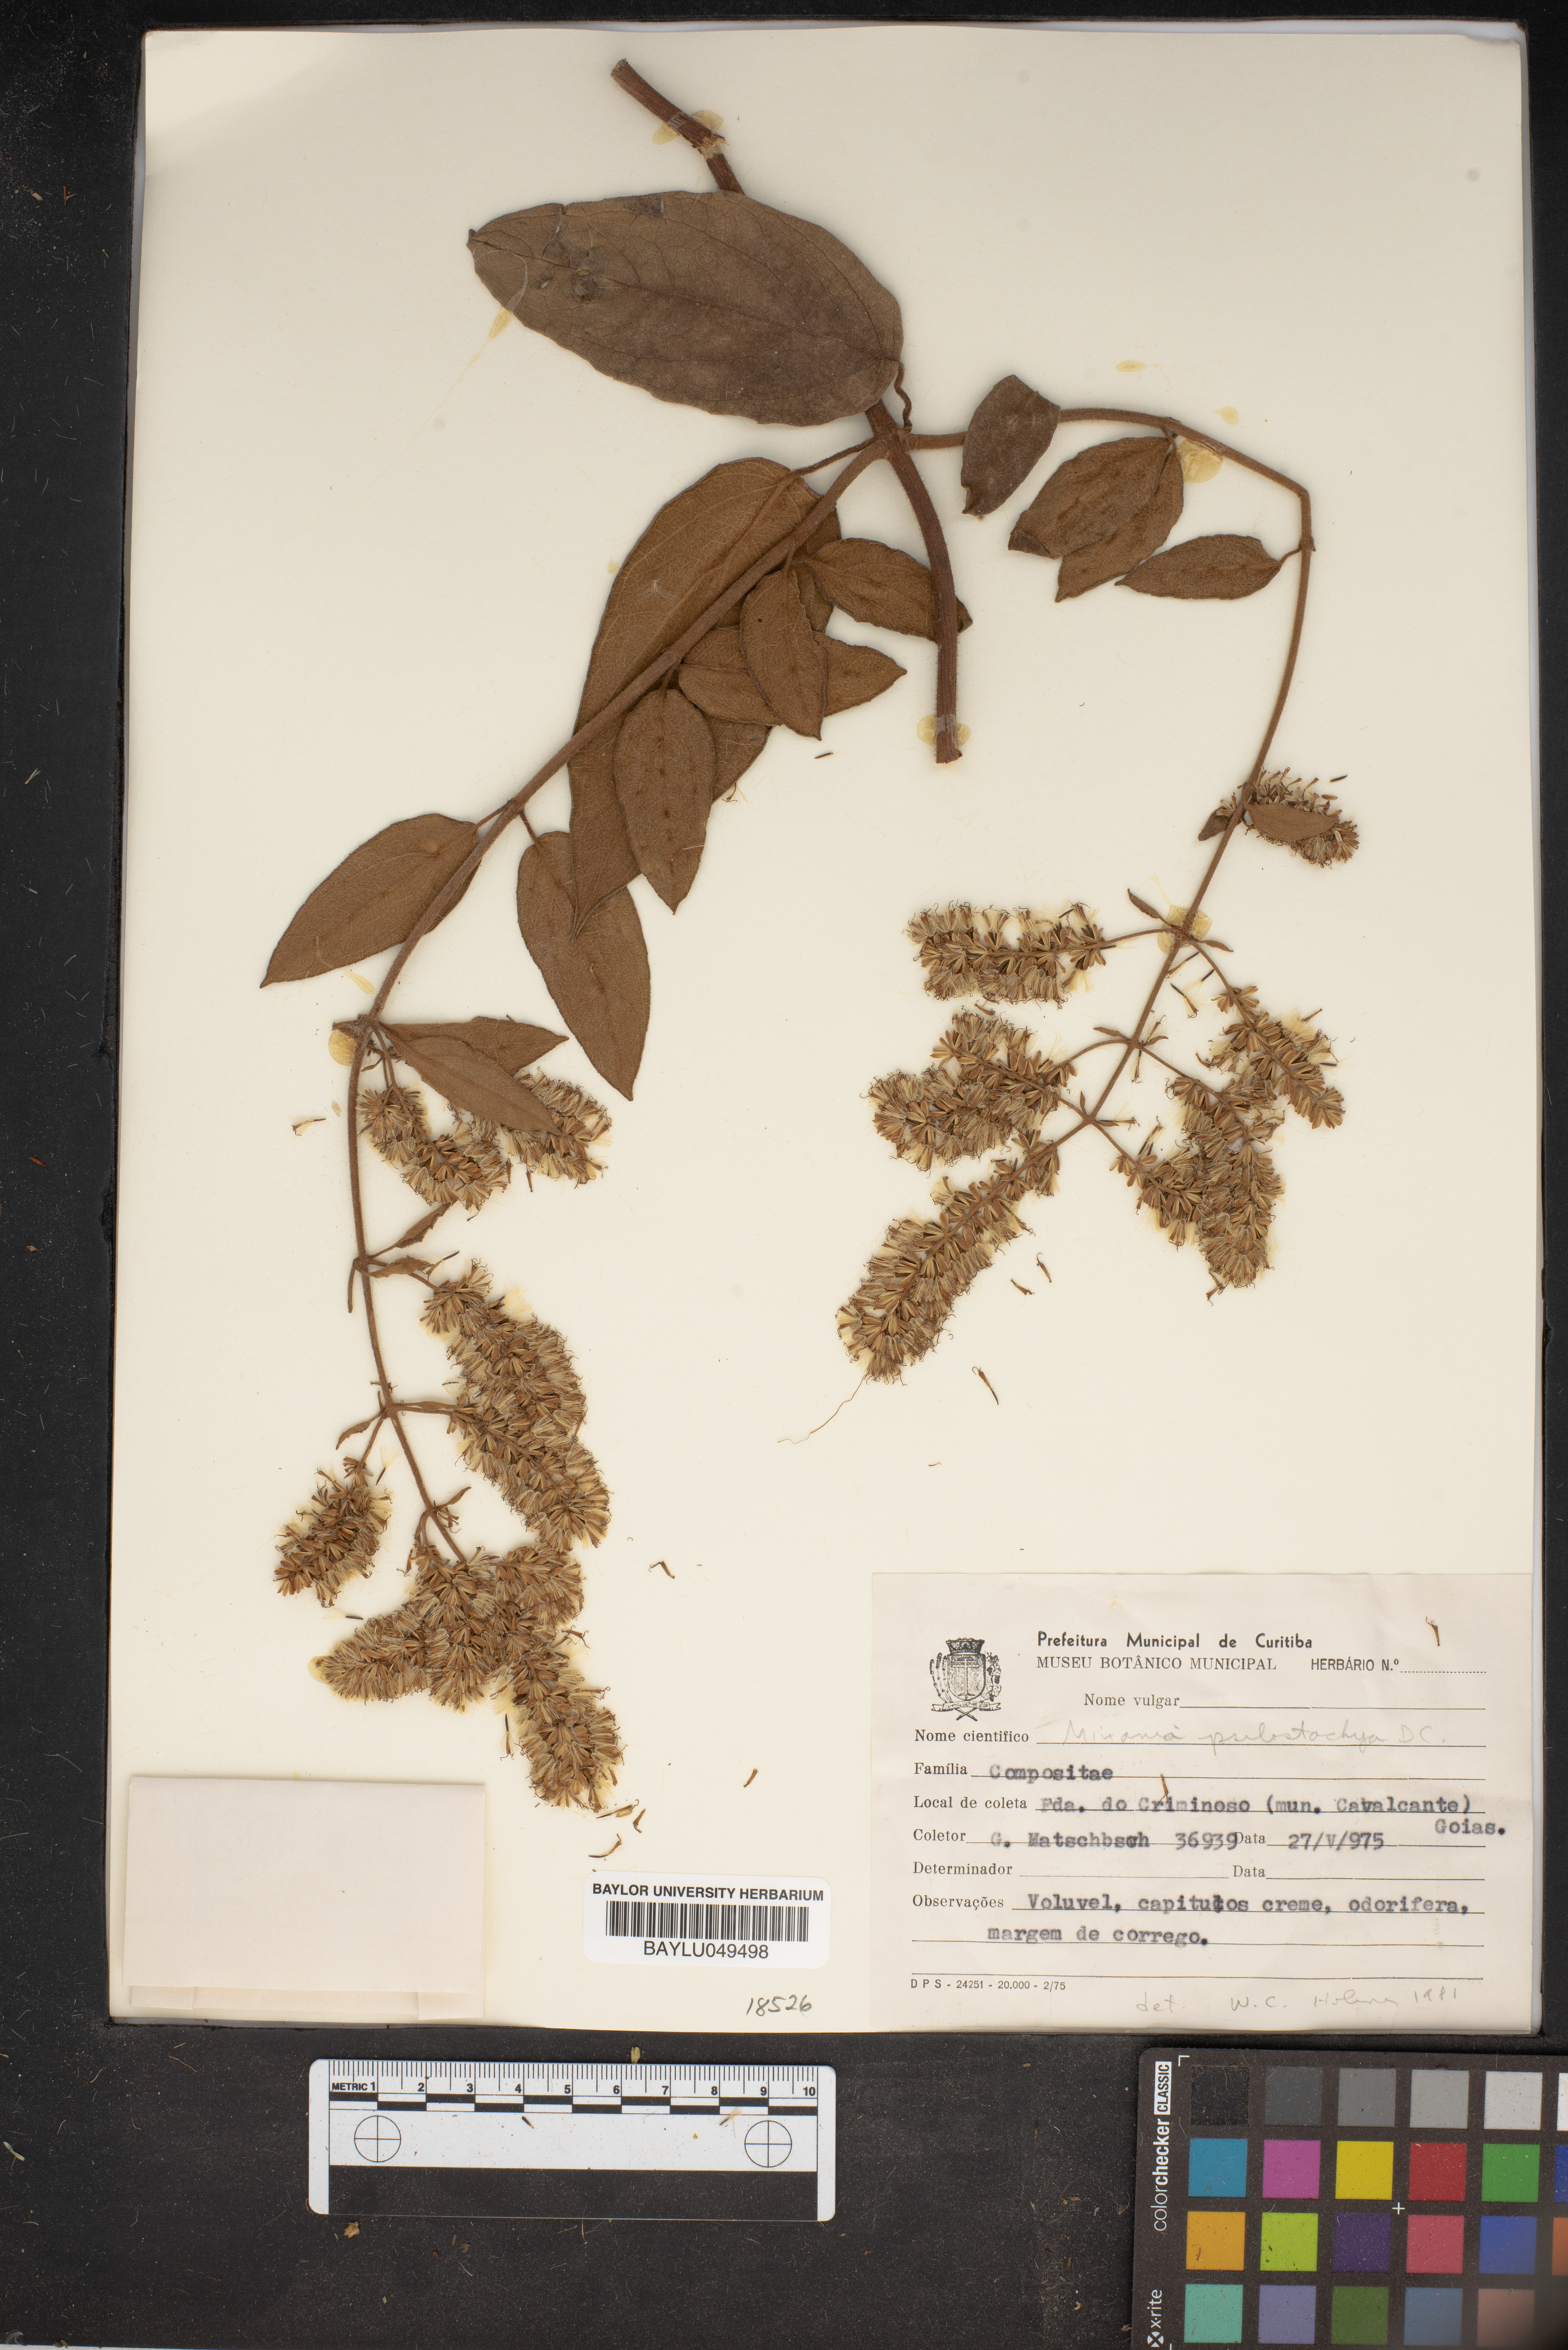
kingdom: Plantae
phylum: Tracheophyta
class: Magnoliopsida
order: Asterales
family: Asteraceae
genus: Mikania
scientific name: Mikania psilostachya
